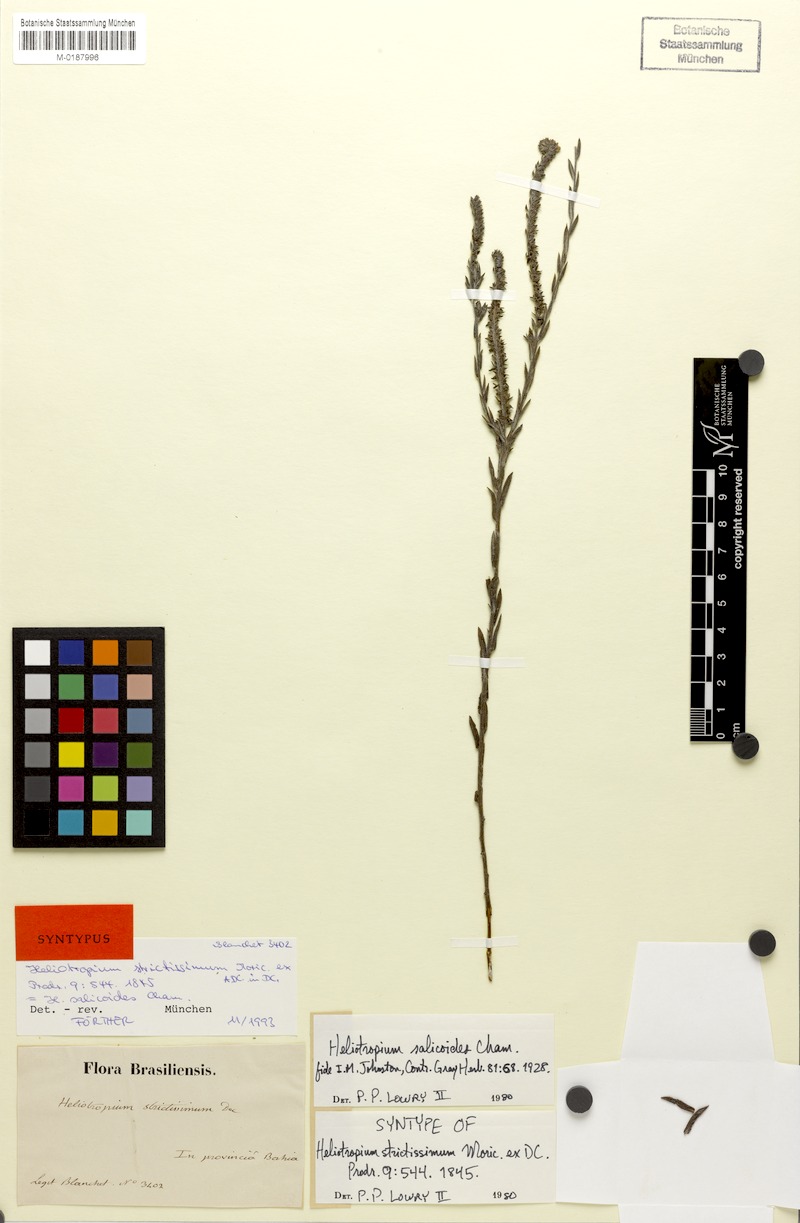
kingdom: Plantae
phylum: Tracheophyta
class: Magnoliopsida
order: Boraginales
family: Heliotropiaceae
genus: Euploca
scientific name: Euploca salicoides
